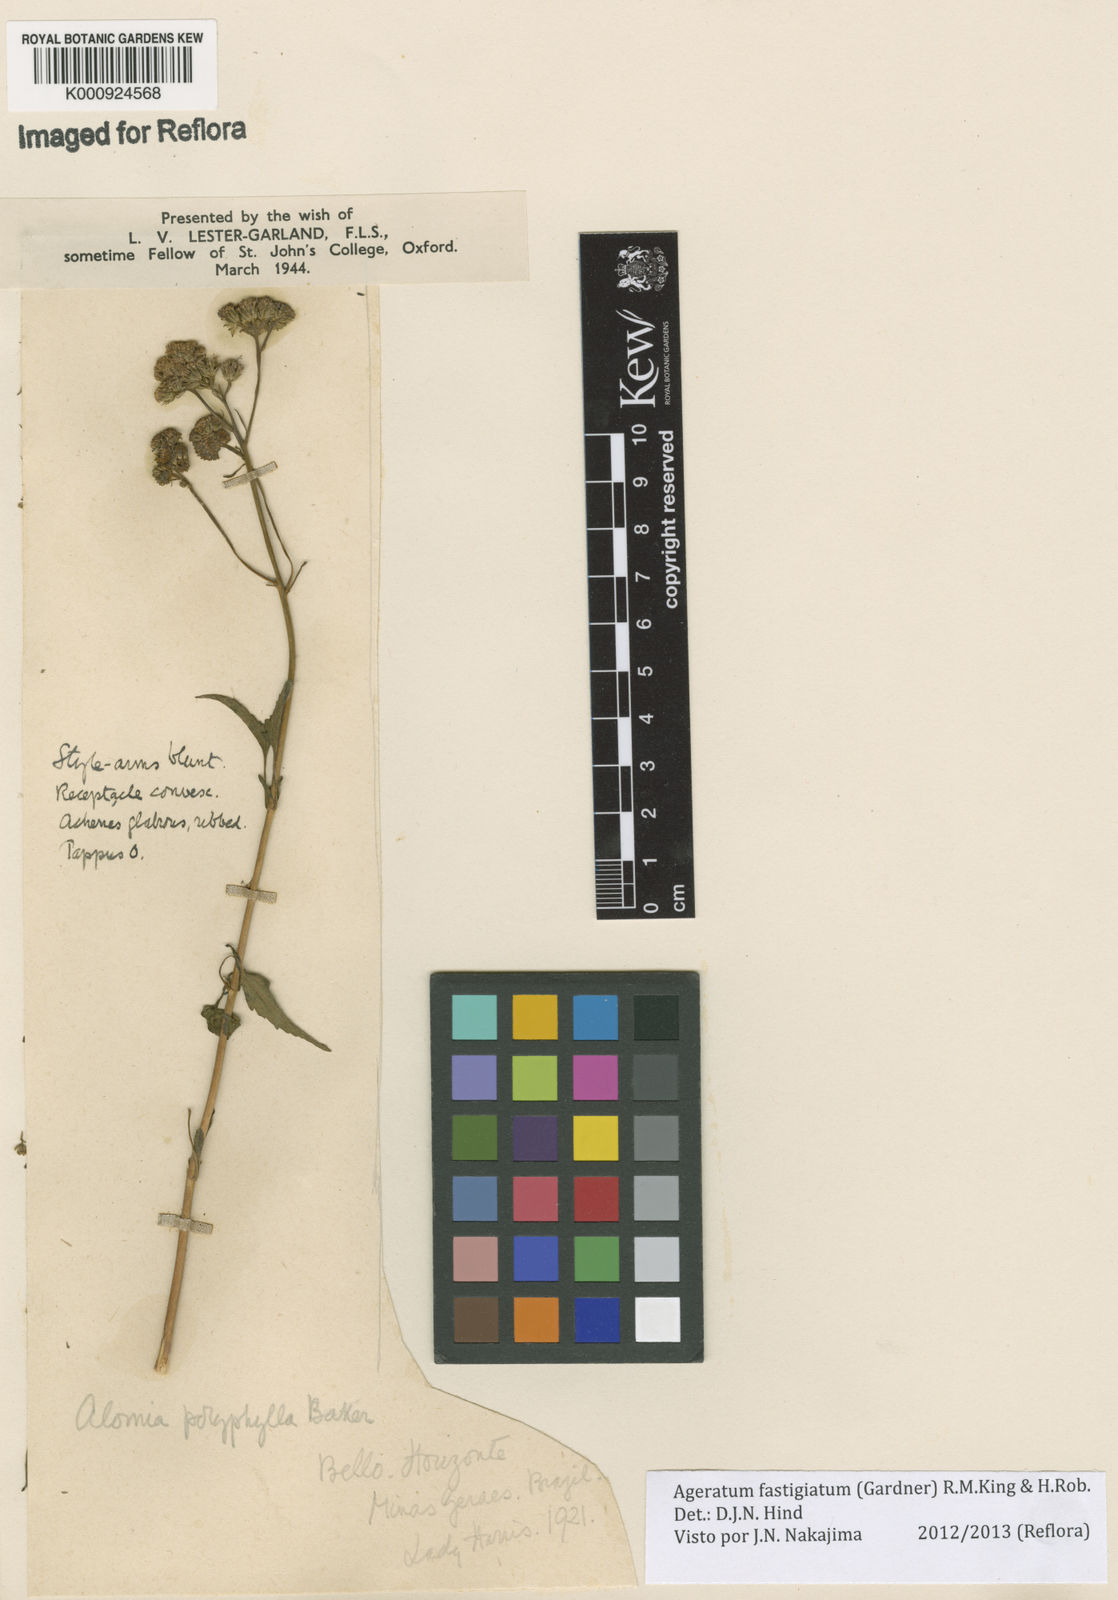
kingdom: Plantae
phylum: Tracheophyta
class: Magnoliopsida
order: Asterales
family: Asteraceae
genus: Ageratum
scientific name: Ageratum fastigiatum
